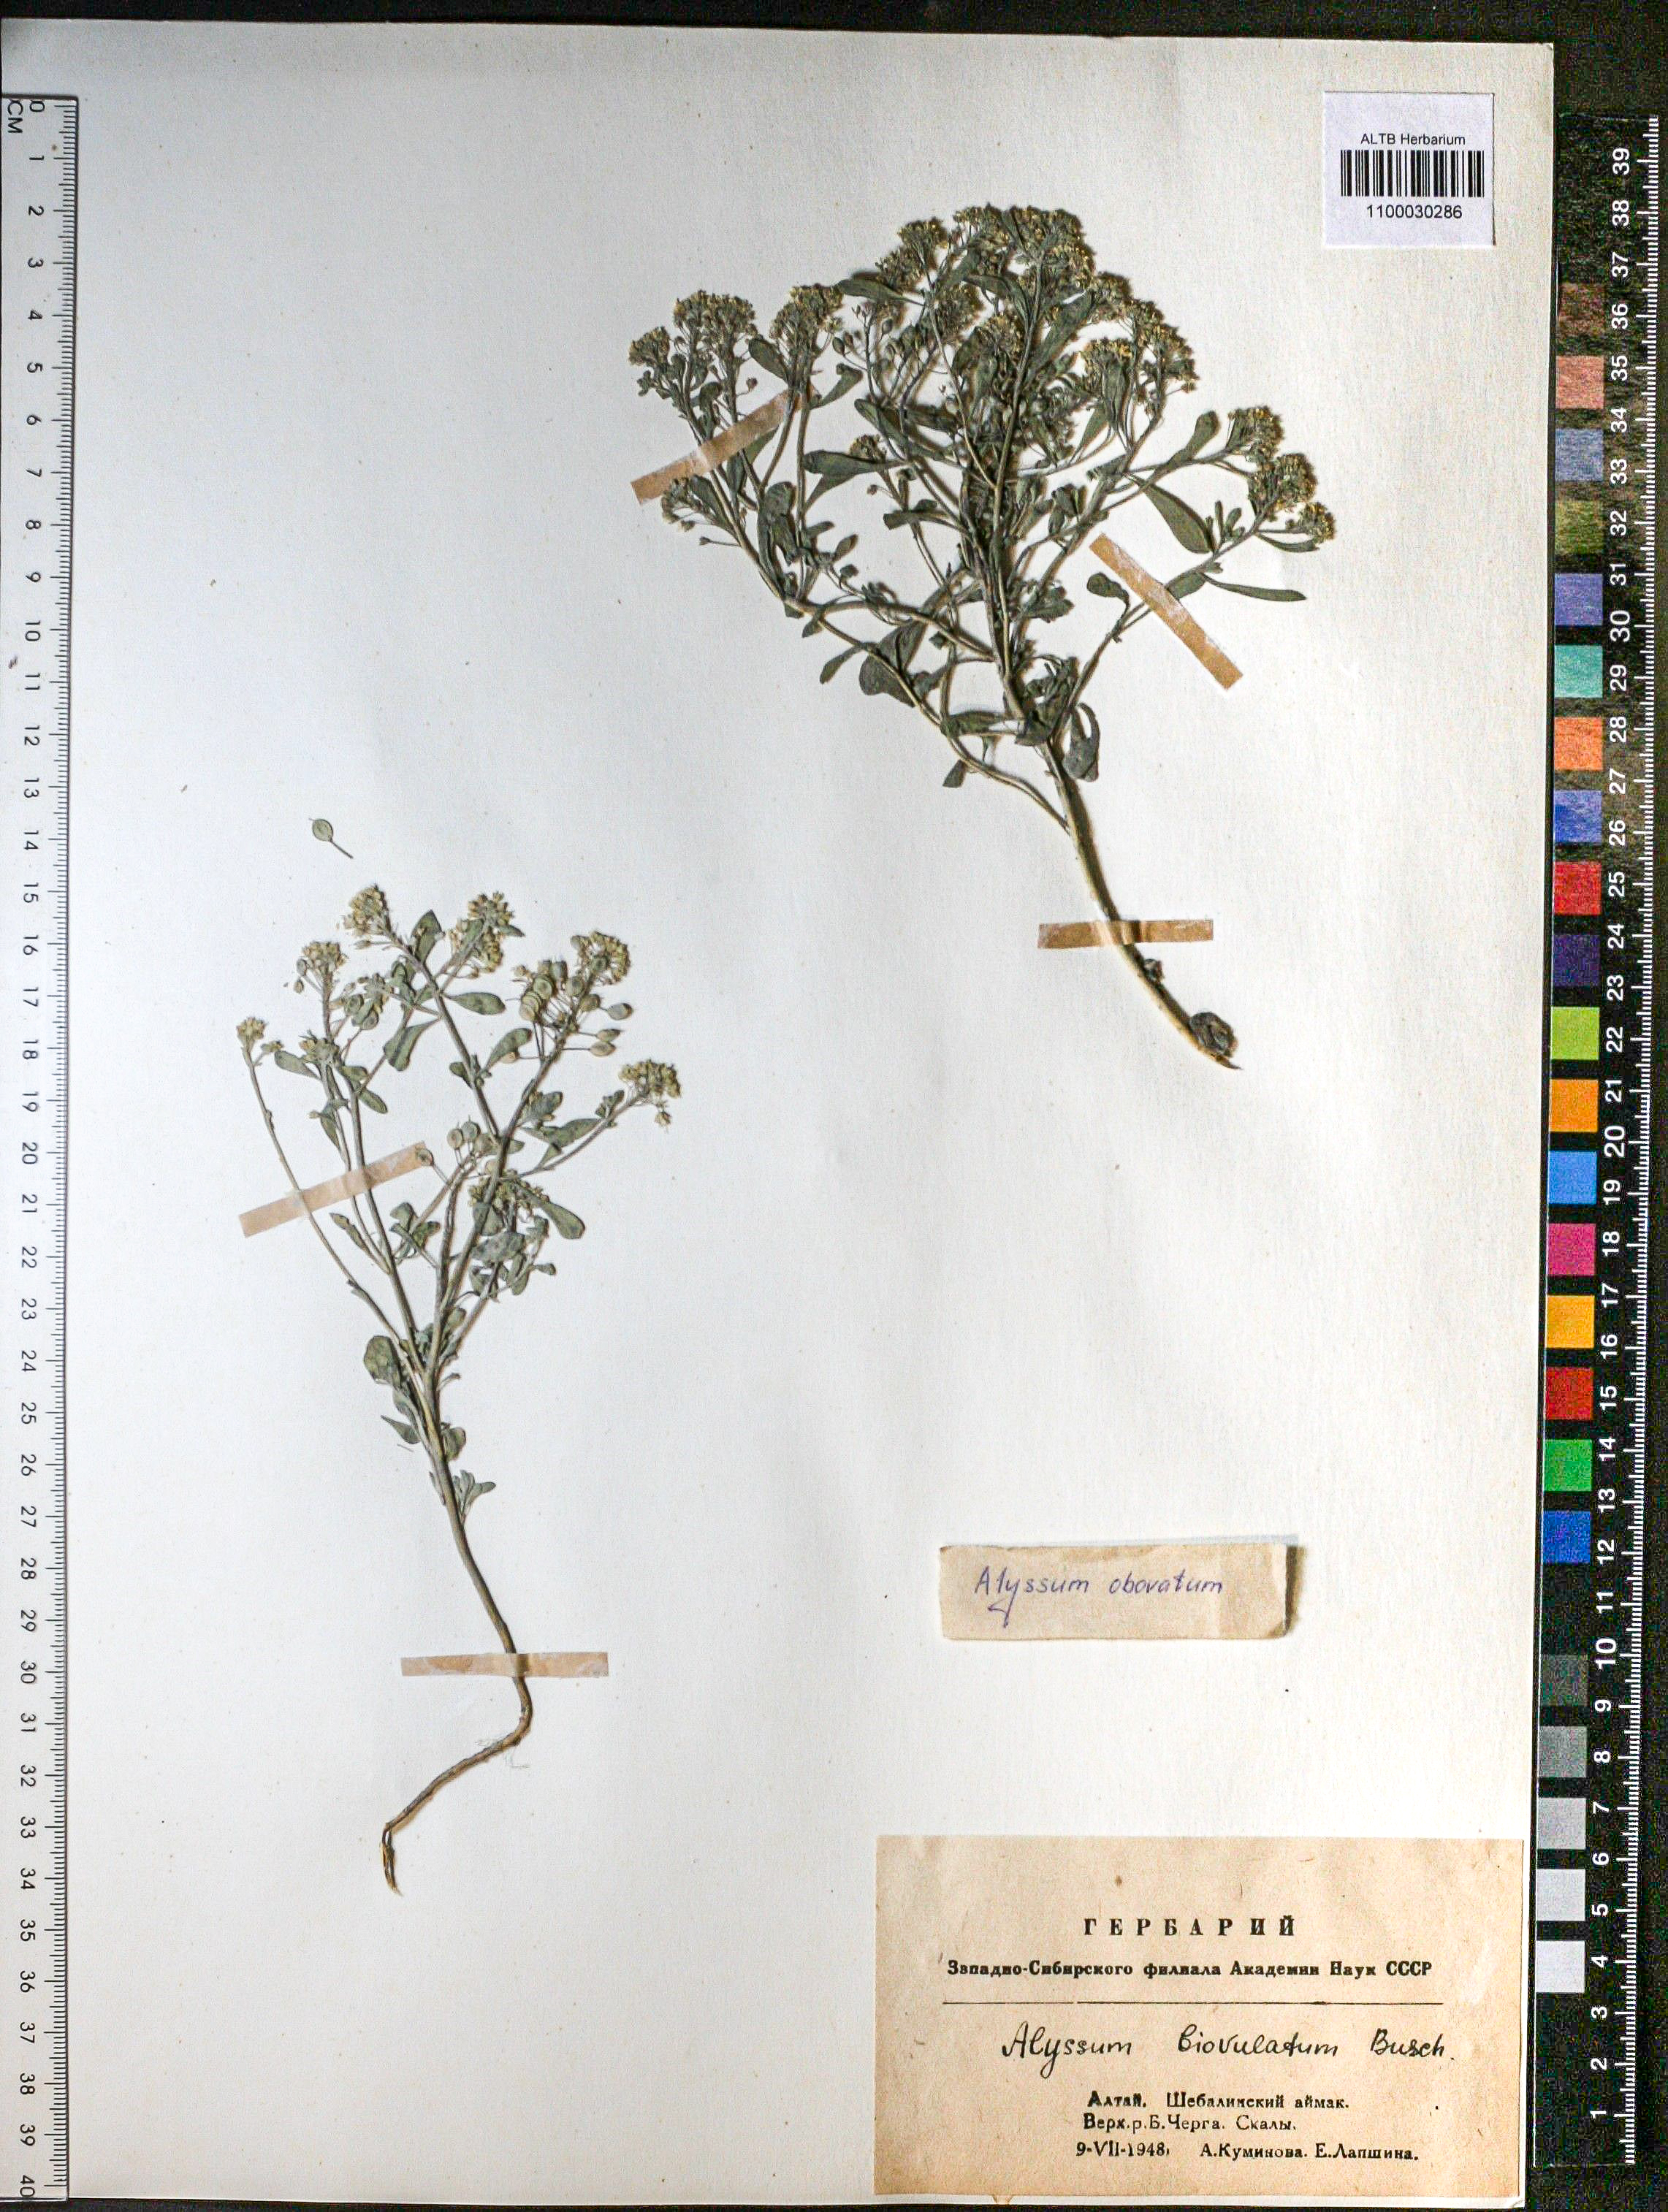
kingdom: Plantae
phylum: Tracheophyta
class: Magnoliopsida
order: Brassicales
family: Brassicaceae
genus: Odontarrhena
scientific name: Odontarrhena obovata
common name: American alyssum
